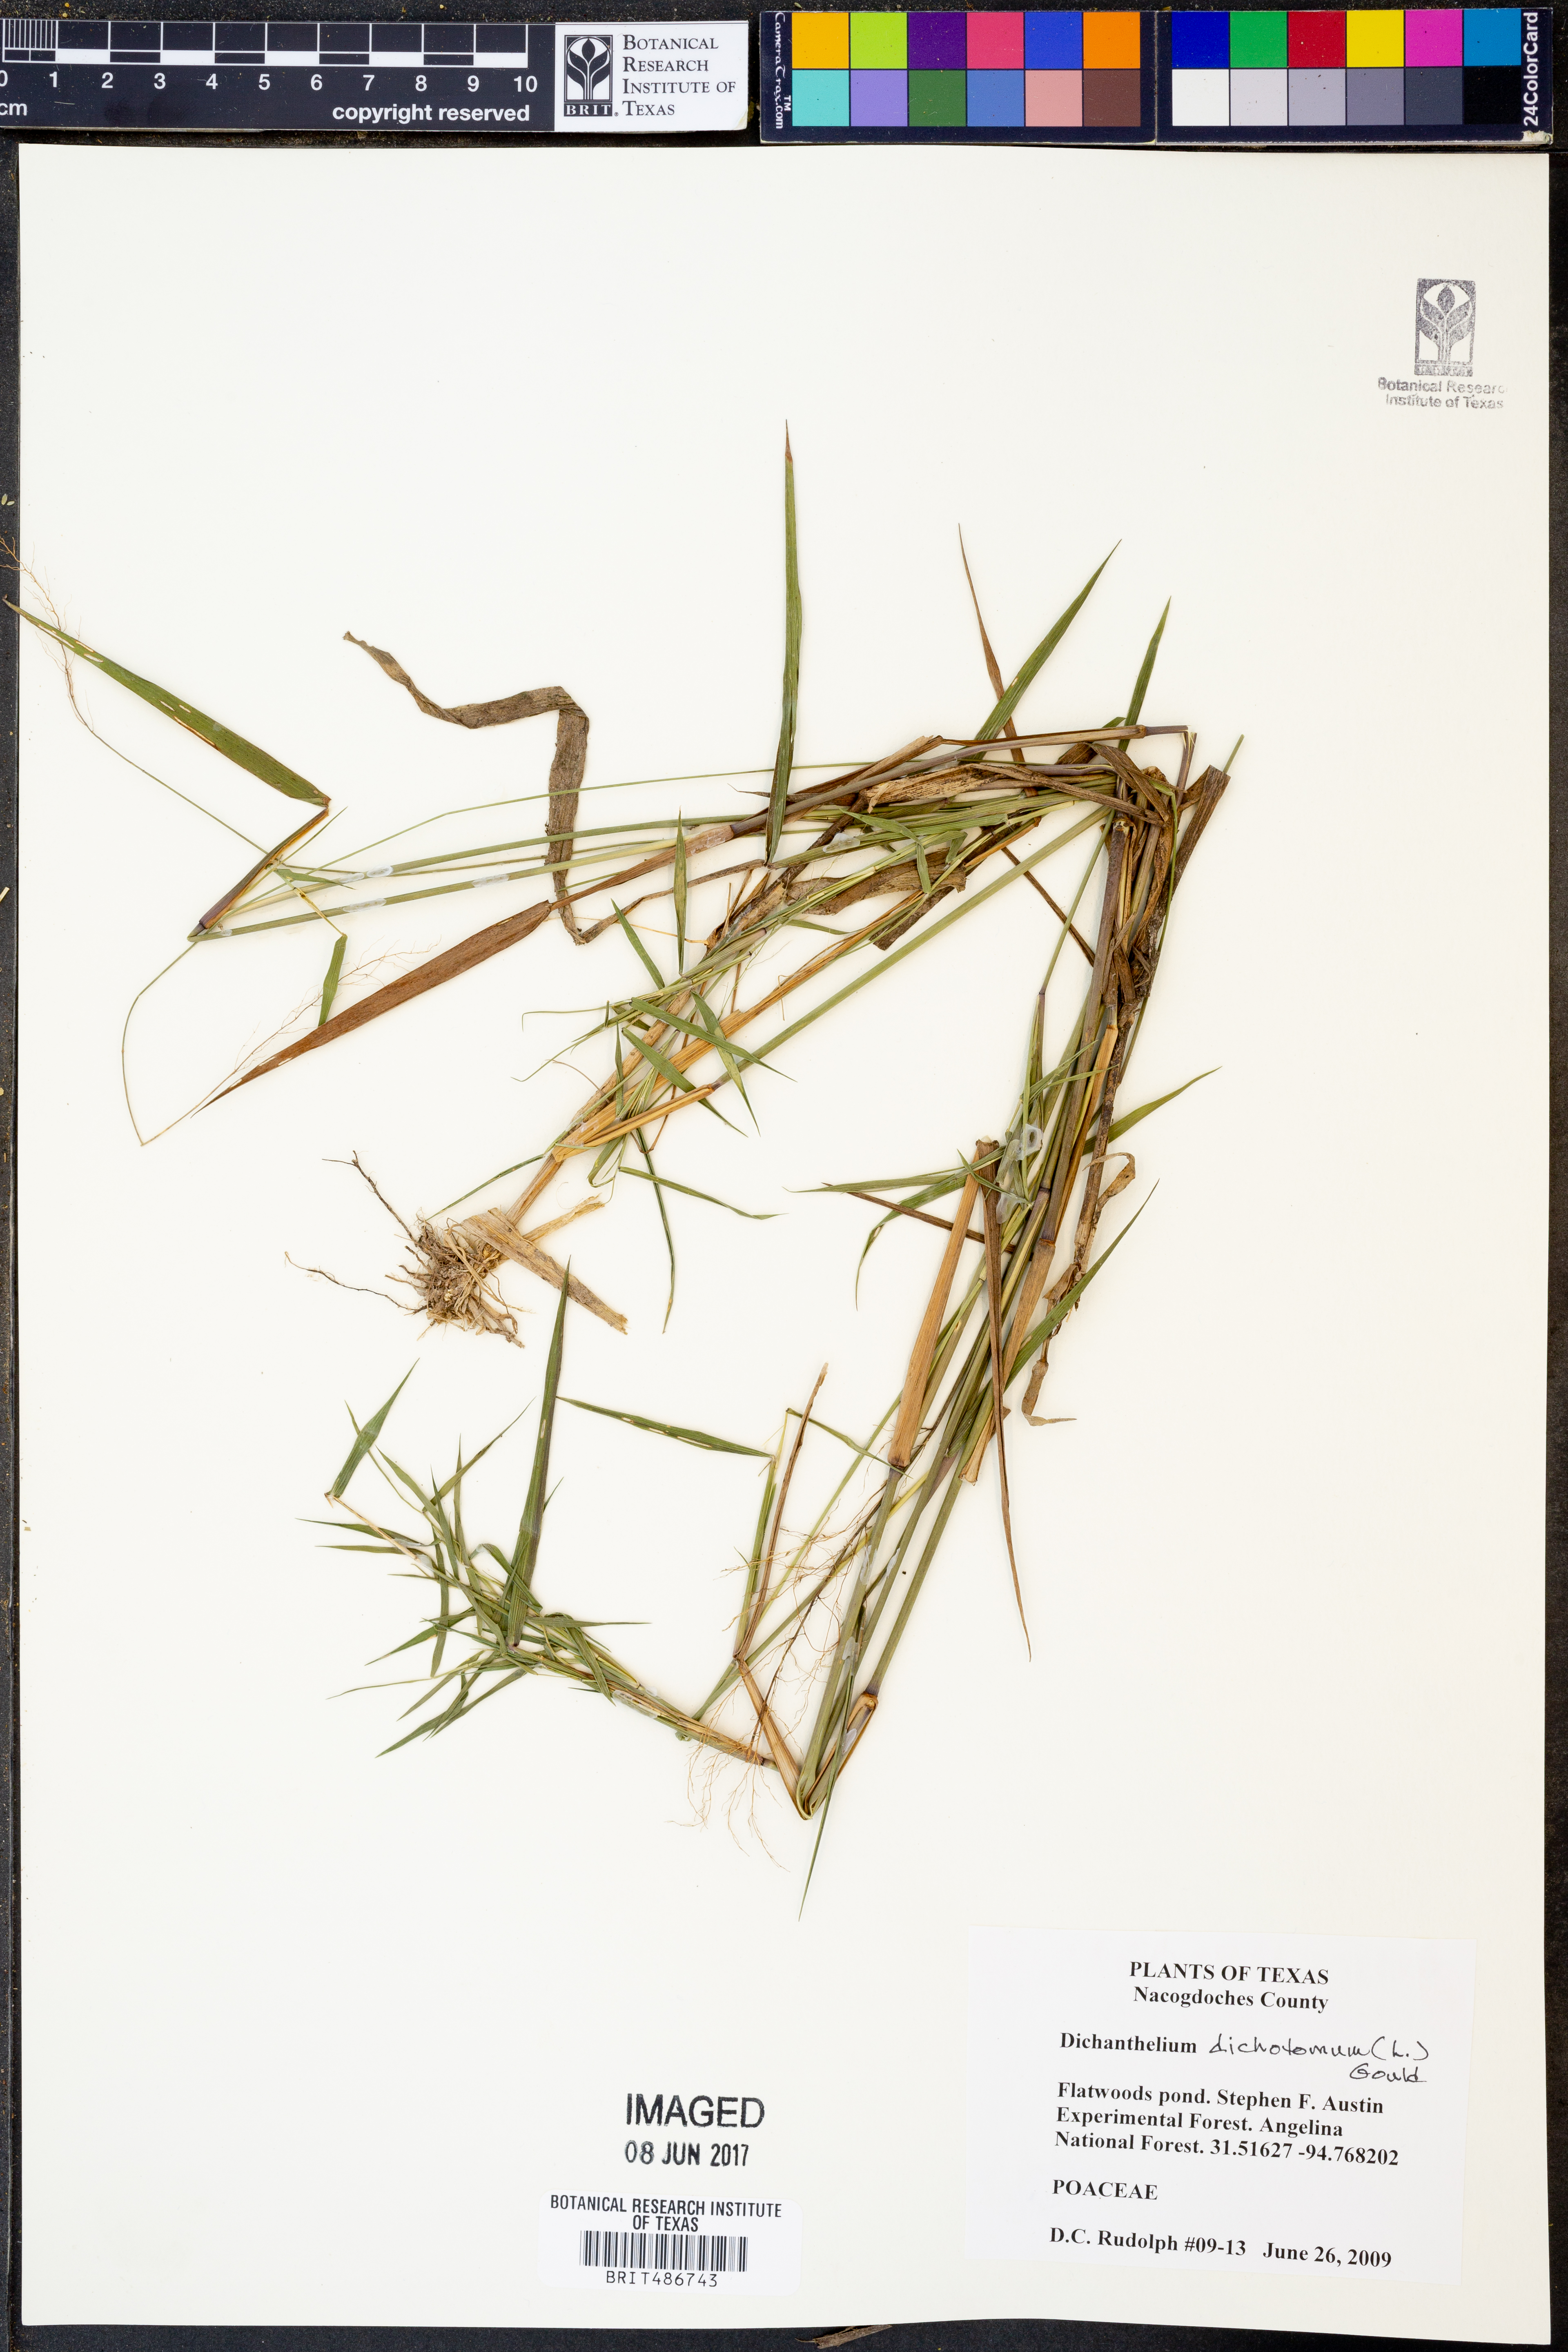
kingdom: Plantae
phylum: Tracheophyta
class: Liliopsida
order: Poales
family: Poaceae
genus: Dichanthelium
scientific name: Dichanthelium dichotomum
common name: Cypress panicgrass
